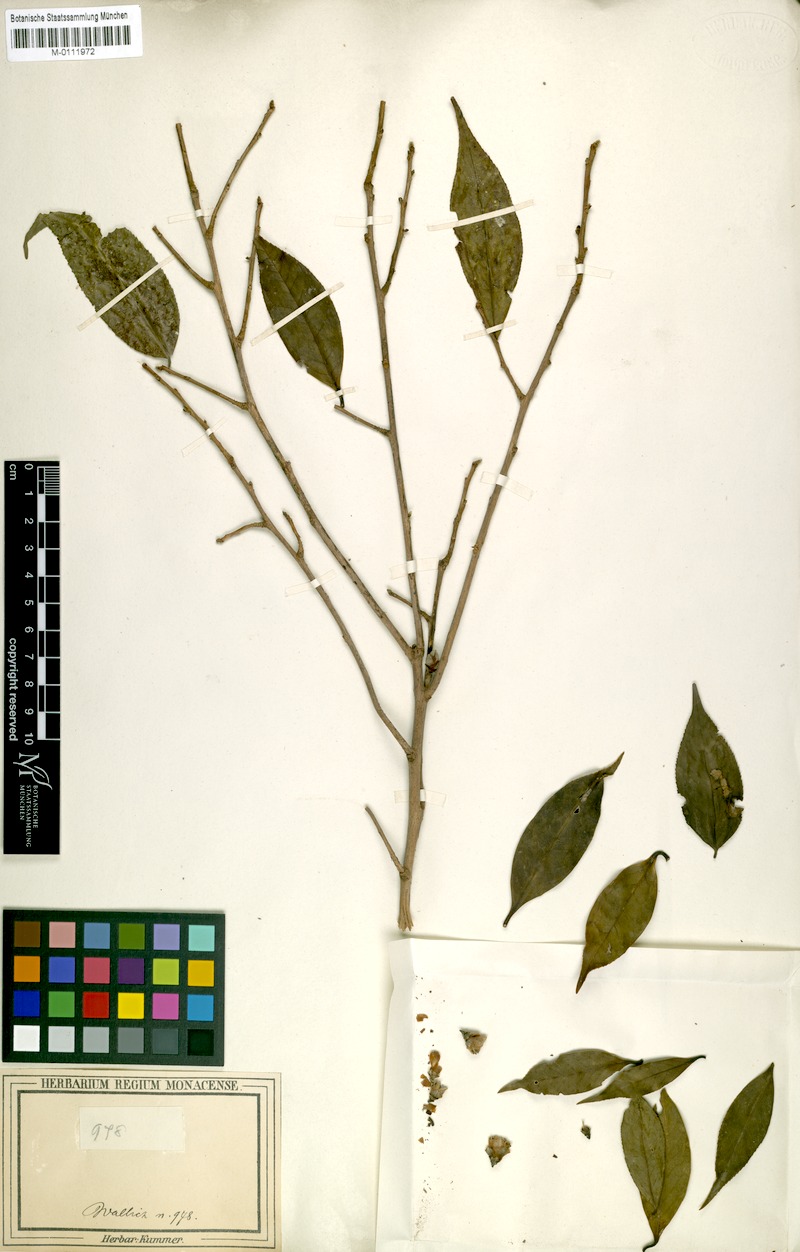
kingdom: Plantae
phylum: Tracheophyta
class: Magnoliopsida
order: Ericales
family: Theaceae
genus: Camellia
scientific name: Camellia caudata
